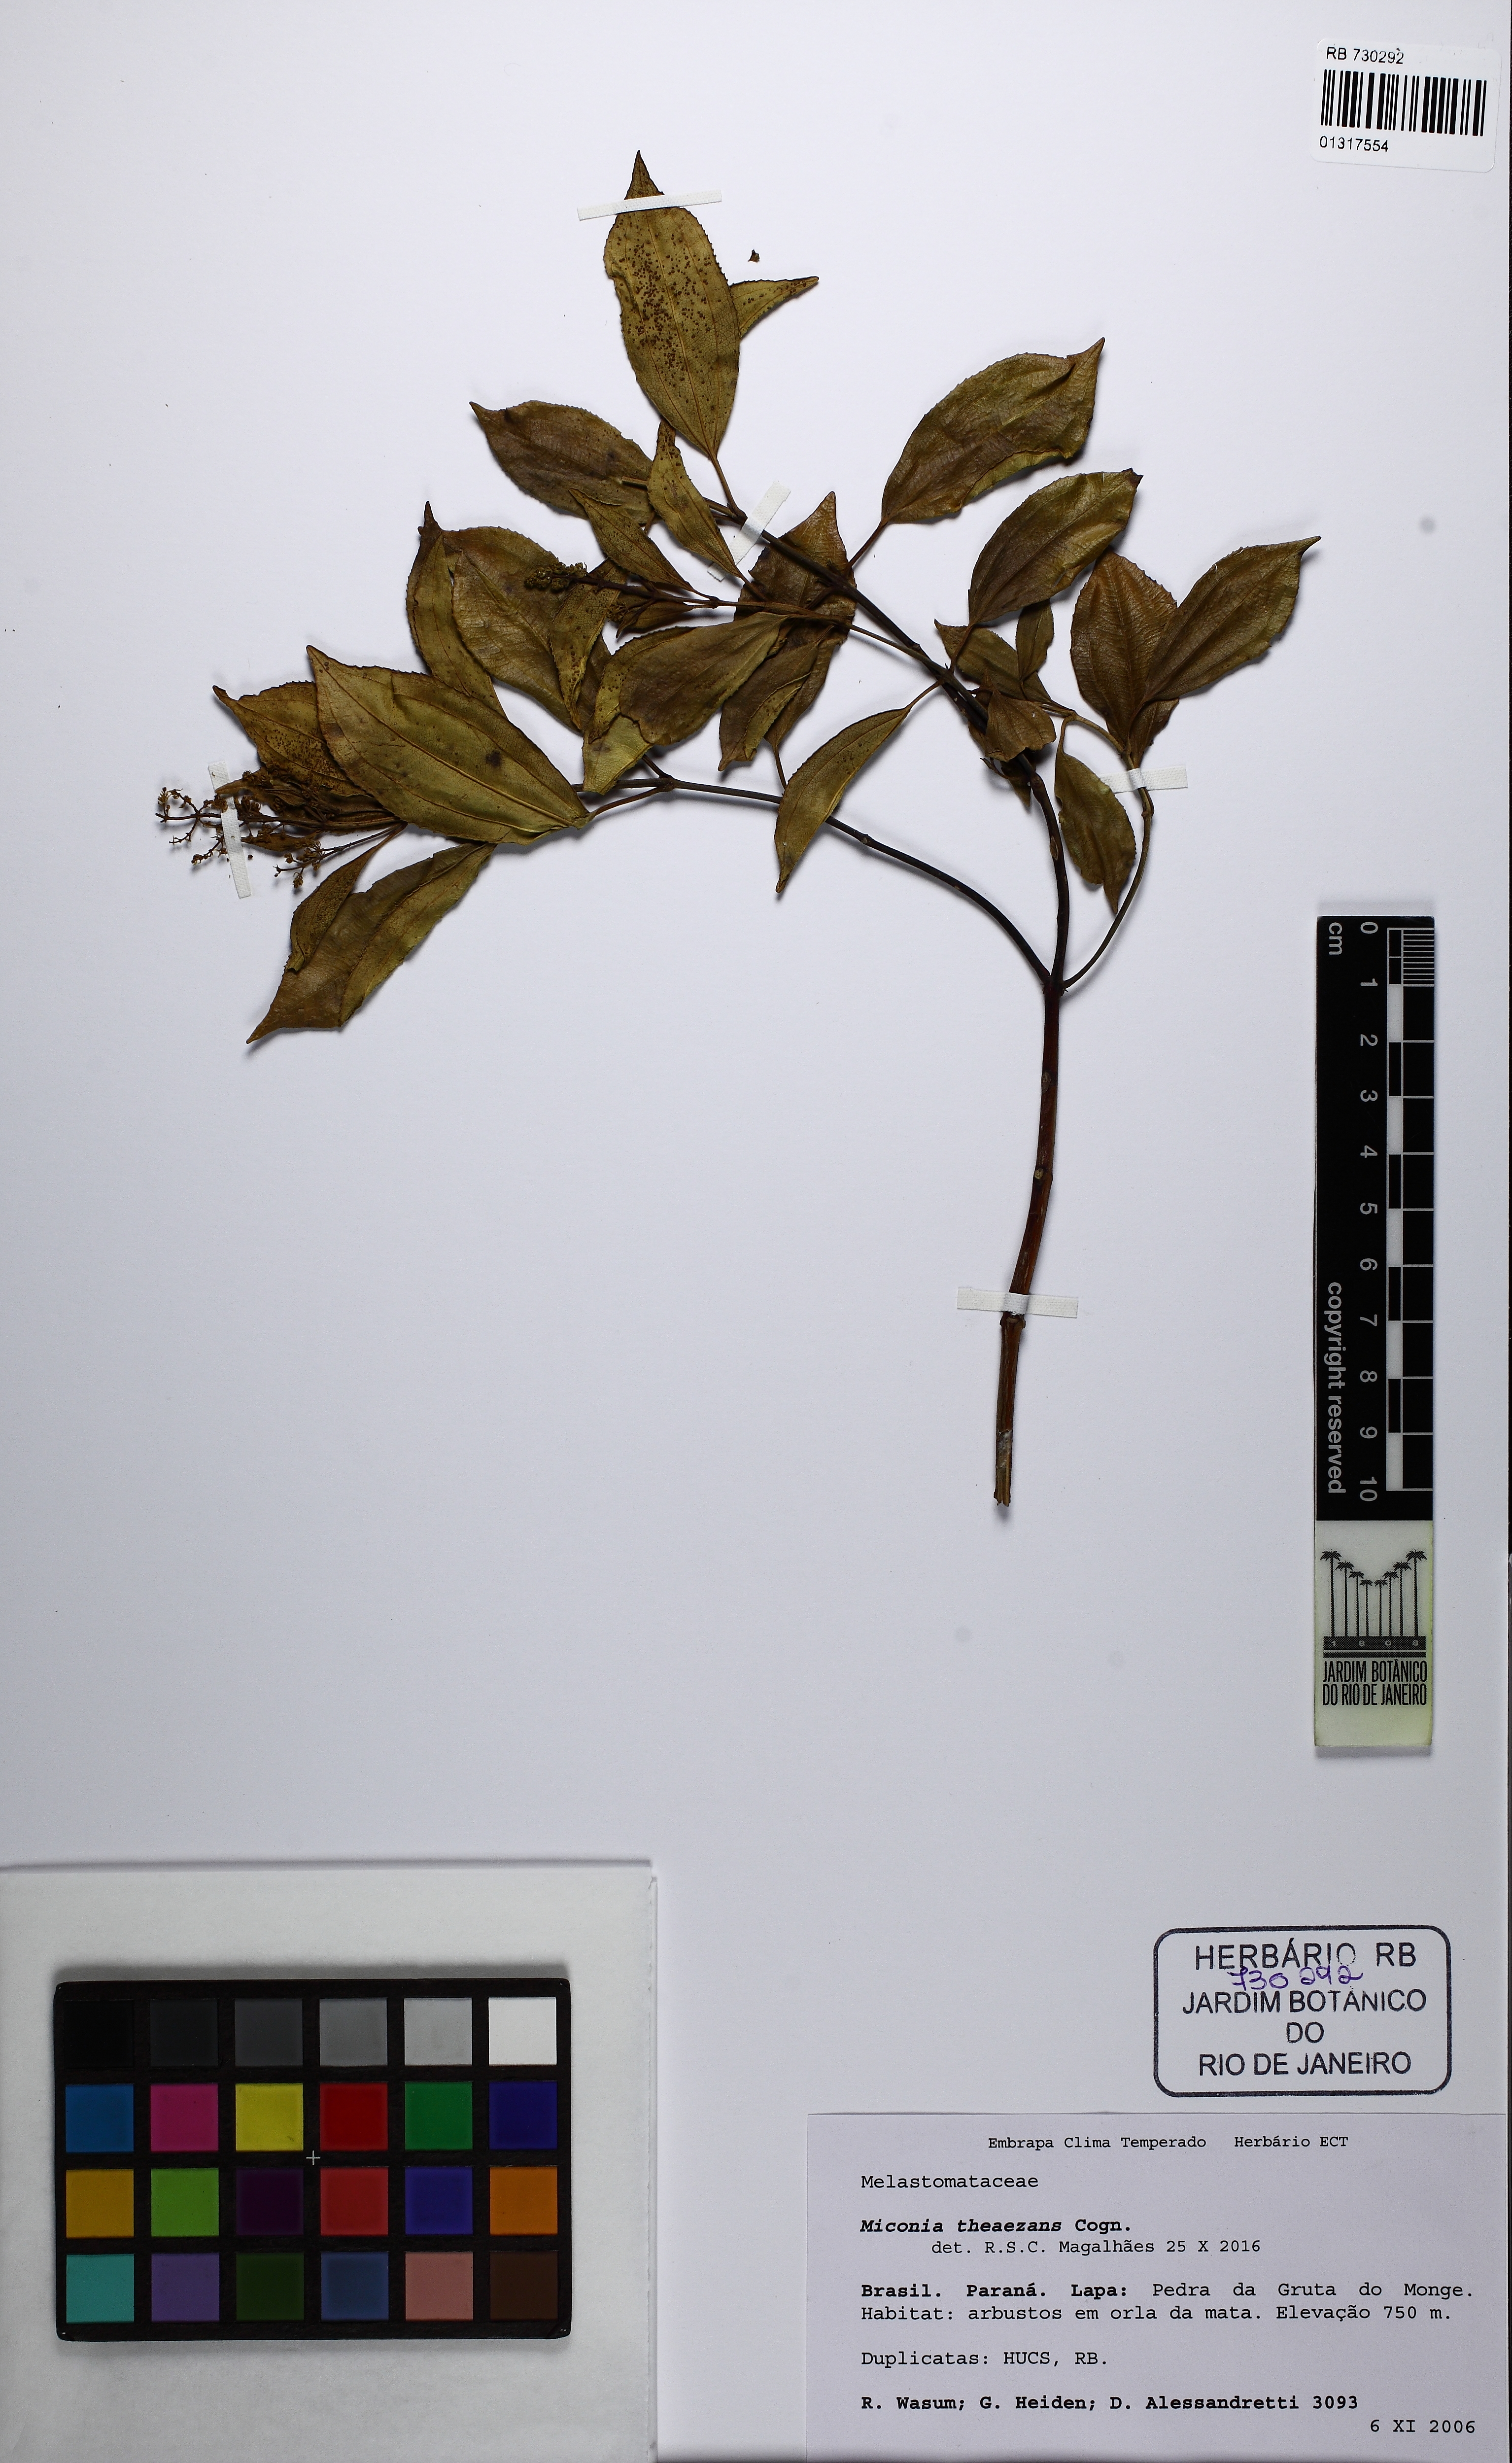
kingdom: Plantae
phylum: Tracheophyta
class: Magnoliopsida
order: Myrtales
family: Melastomataceae
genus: Miconia
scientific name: Miconia theizans
